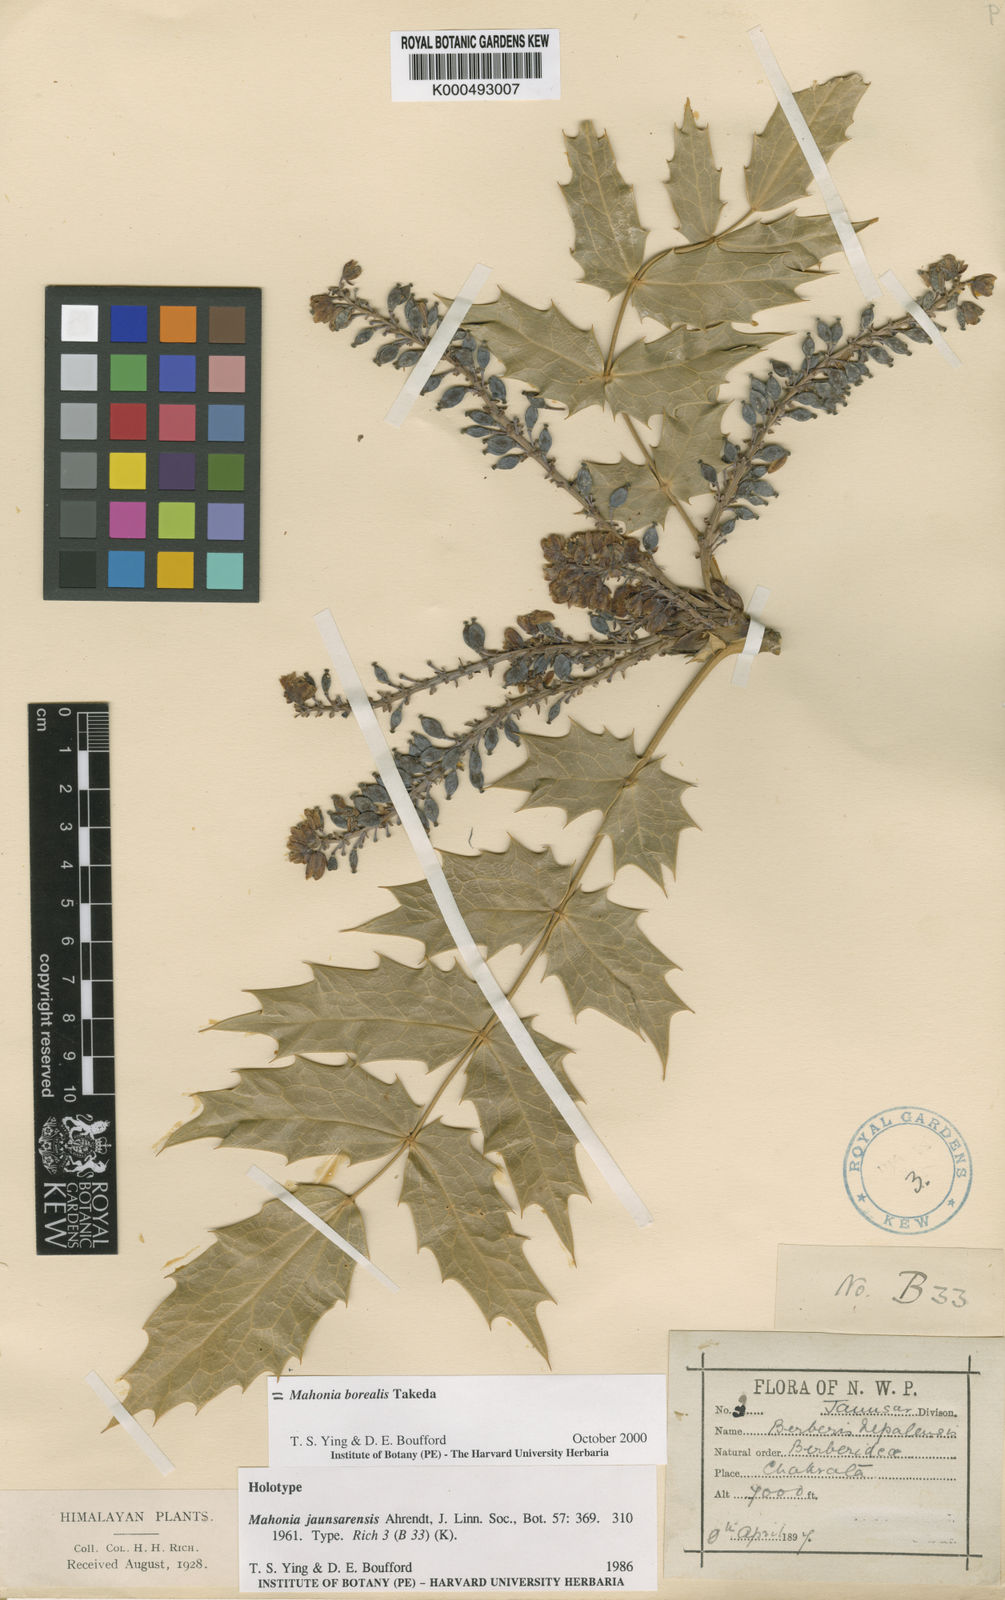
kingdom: Plantae
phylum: Tracheophyta
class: Magnoliopsida
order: Ranunculales
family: Berberidaceae
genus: Mahonia
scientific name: Mahonia napaulensis
